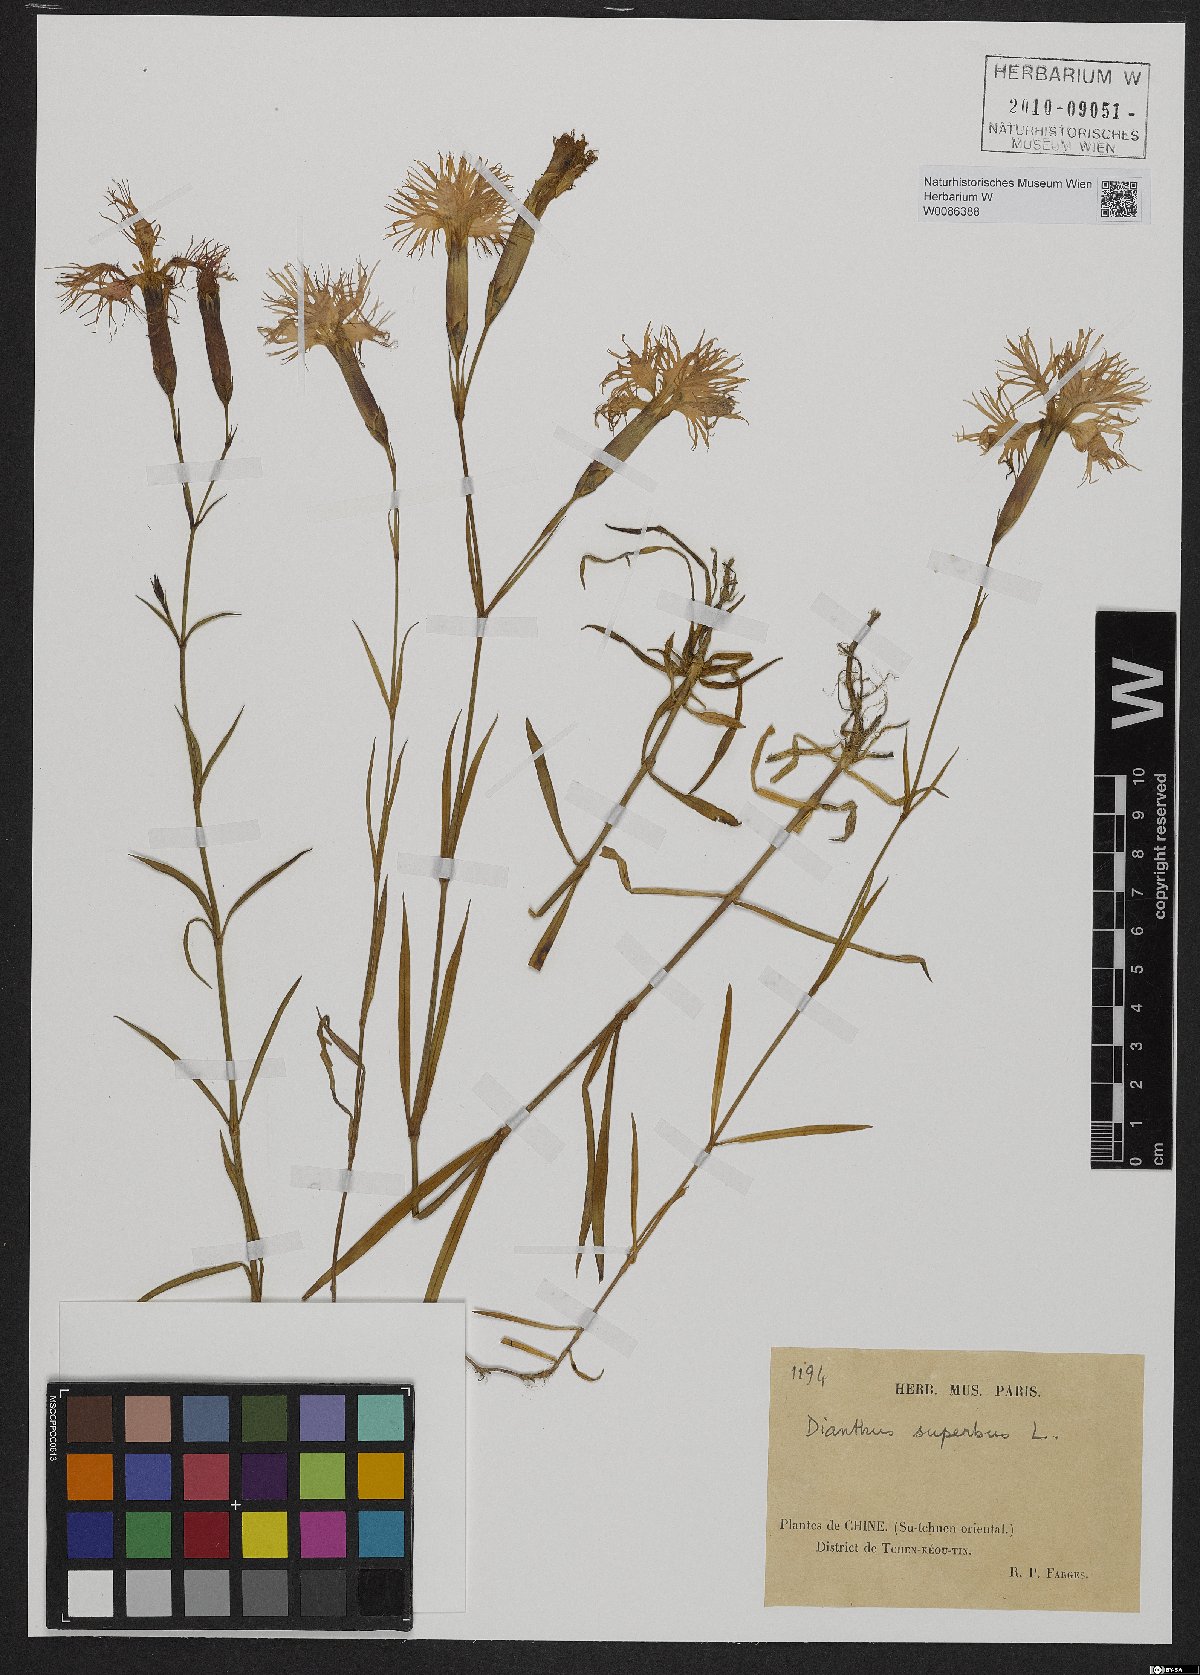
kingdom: Plantae
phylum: Tracheophyta
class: Magnoliopsida
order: Caryophyllales
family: Caryophyllaceae
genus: Dianthus
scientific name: Dianthus superbus
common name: Fringed pink
